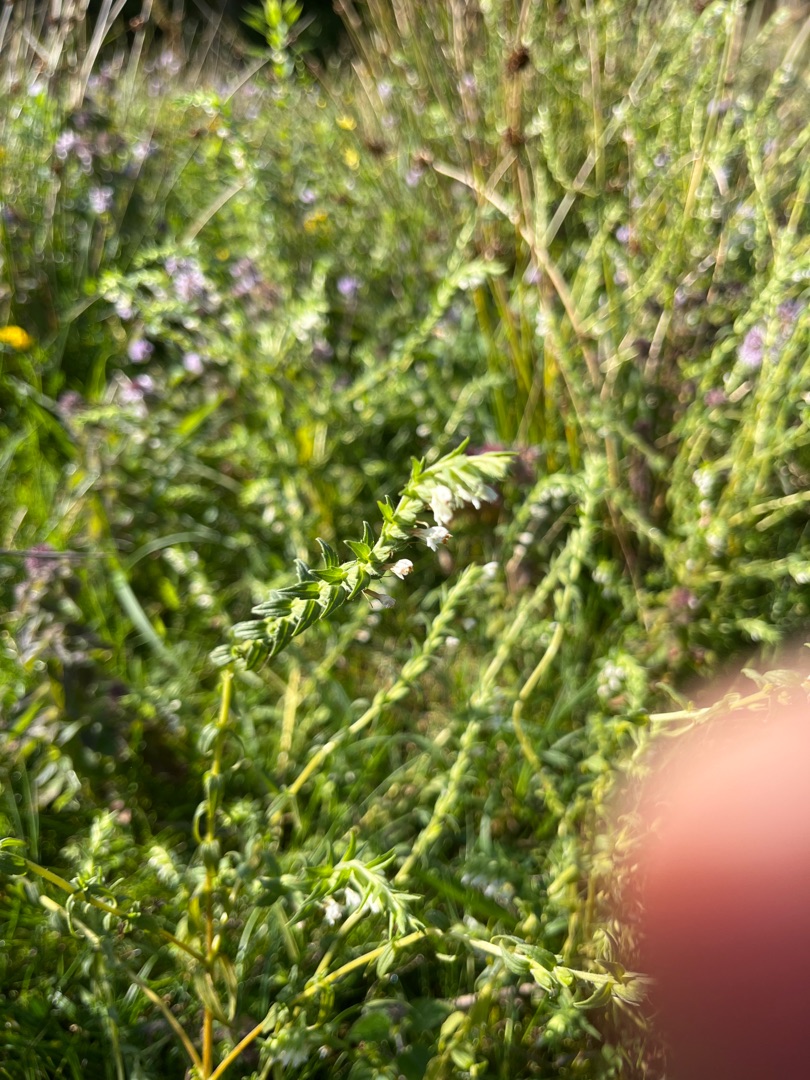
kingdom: Plantae
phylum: Tracheophyta
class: Magnoliopsida
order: Lamiales
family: Orobanchaceae
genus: Odontites
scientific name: Odontites
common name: Rødtopslægten
